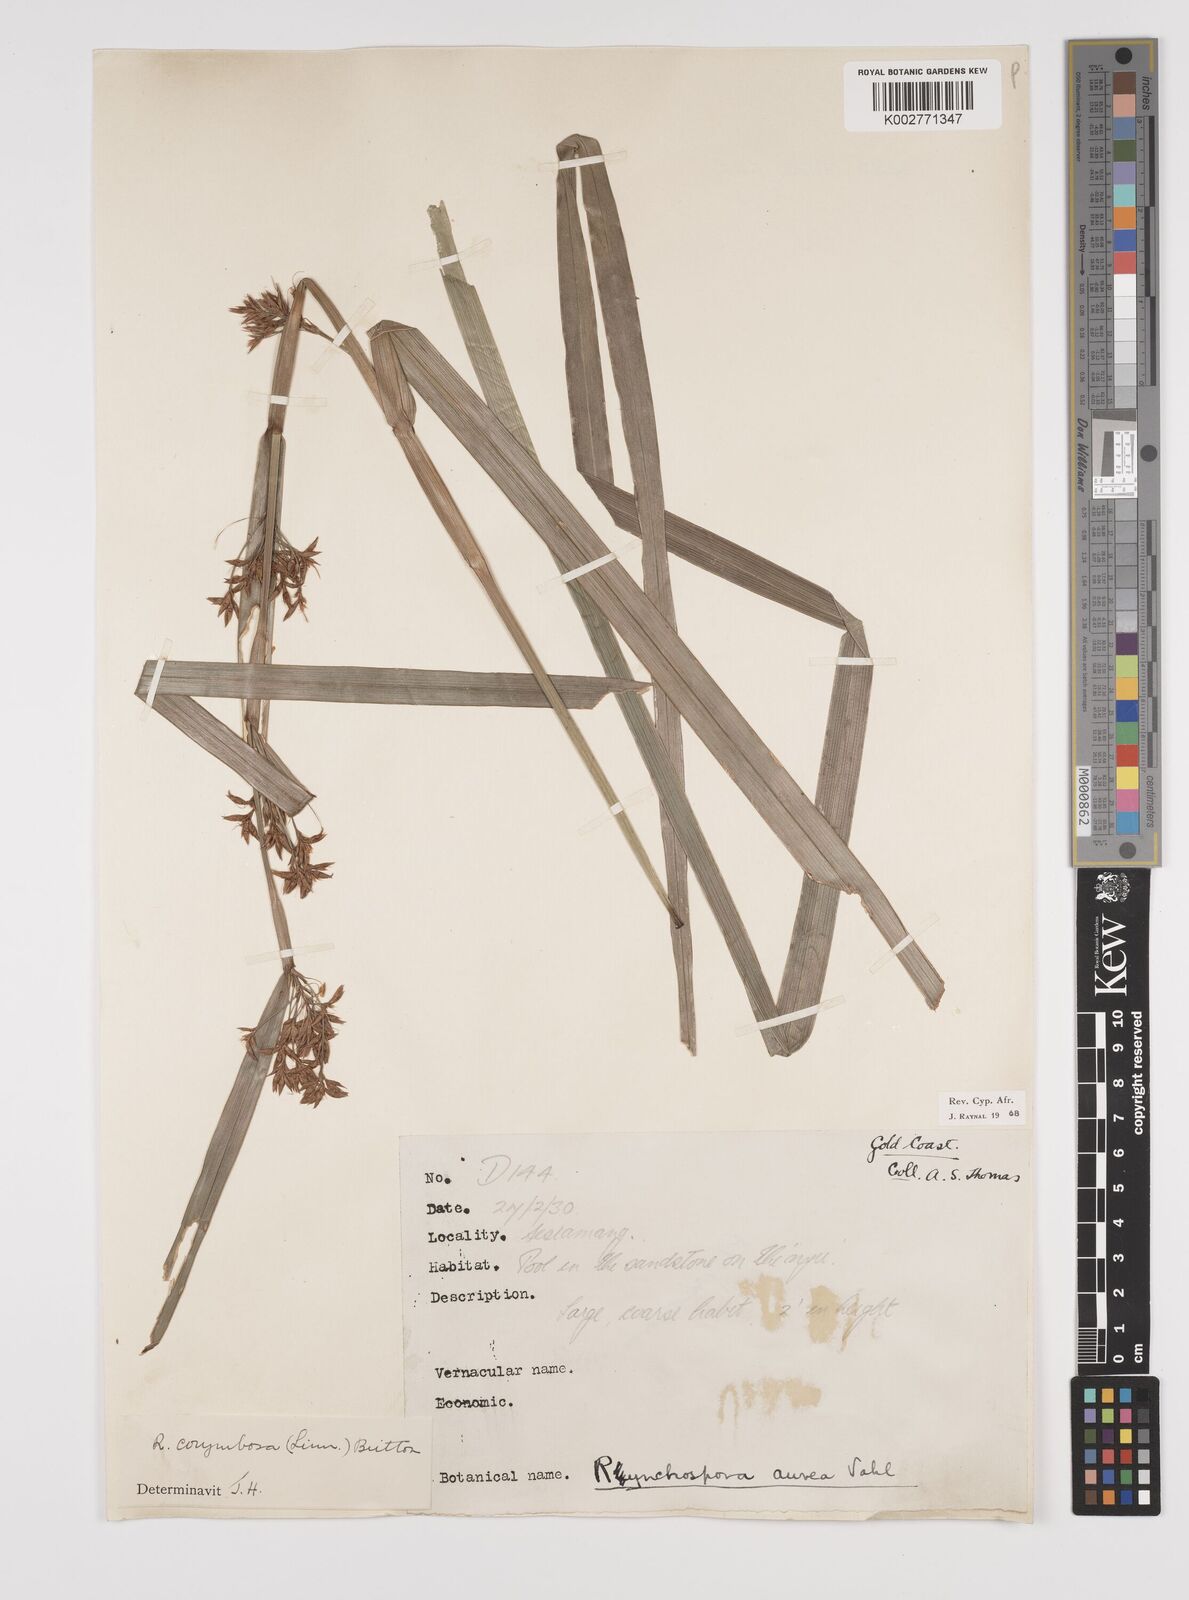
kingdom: Plantae
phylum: Tracheophyta
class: Liliopsida
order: Poales
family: Cyperaceae
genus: Rhynchospora
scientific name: Rhynchospora corymbosa
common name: Golden beak sedge
